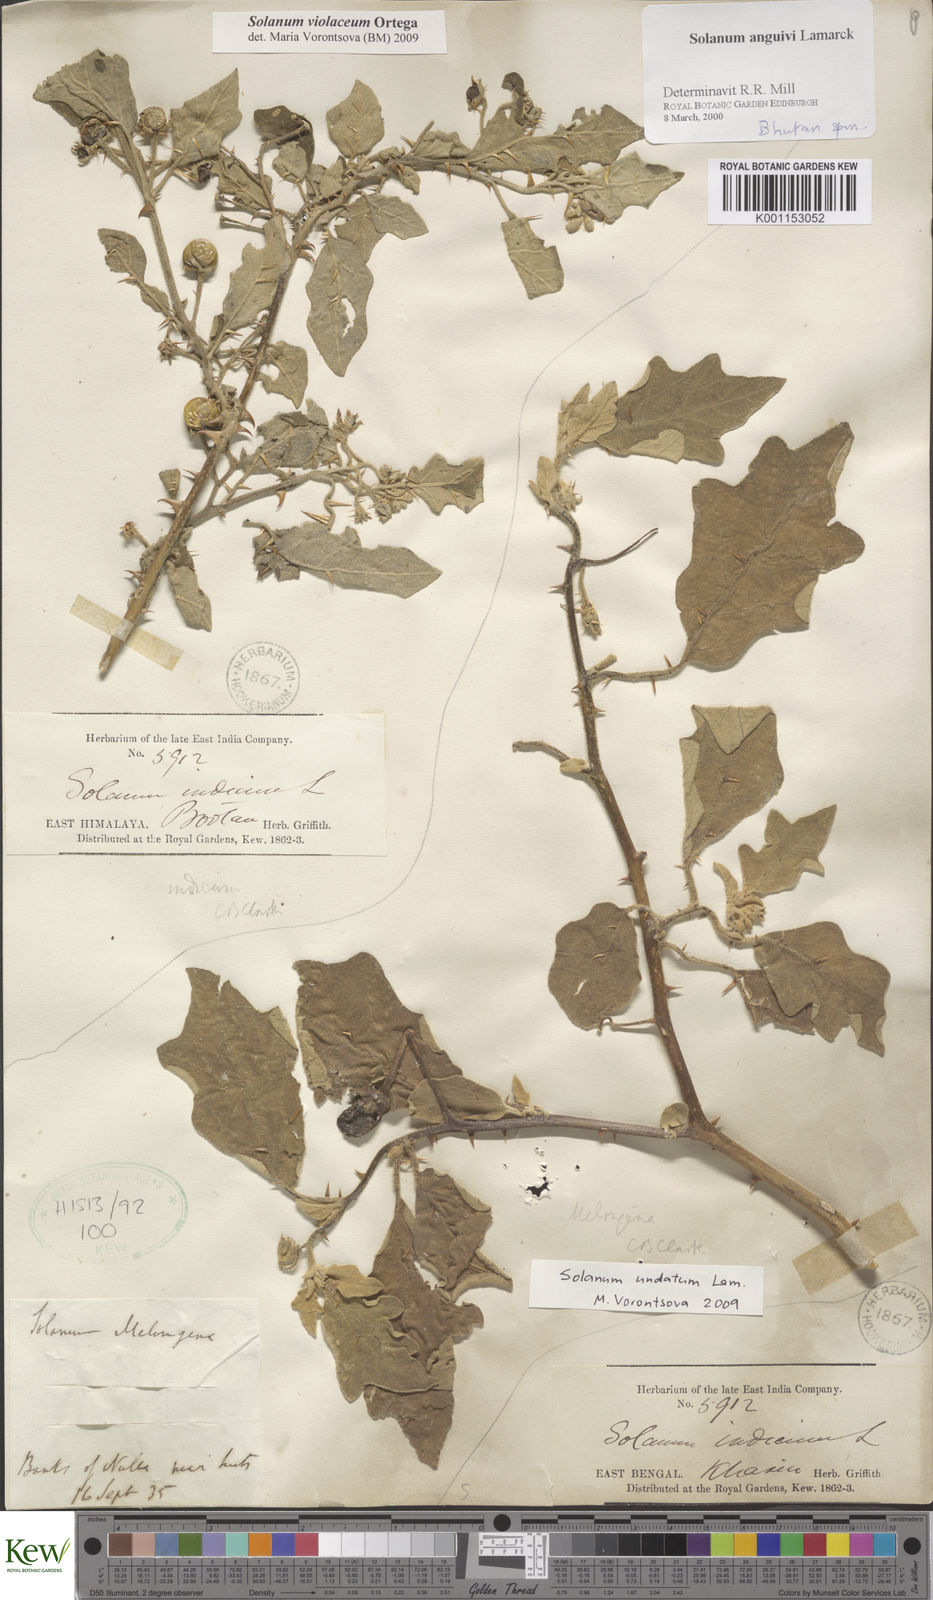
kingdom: Plantae
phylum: Tracheophyta
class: Magnoliopsida
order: Solanales
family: Solanaceae
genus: Solanum
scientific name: Solanum violaceum
